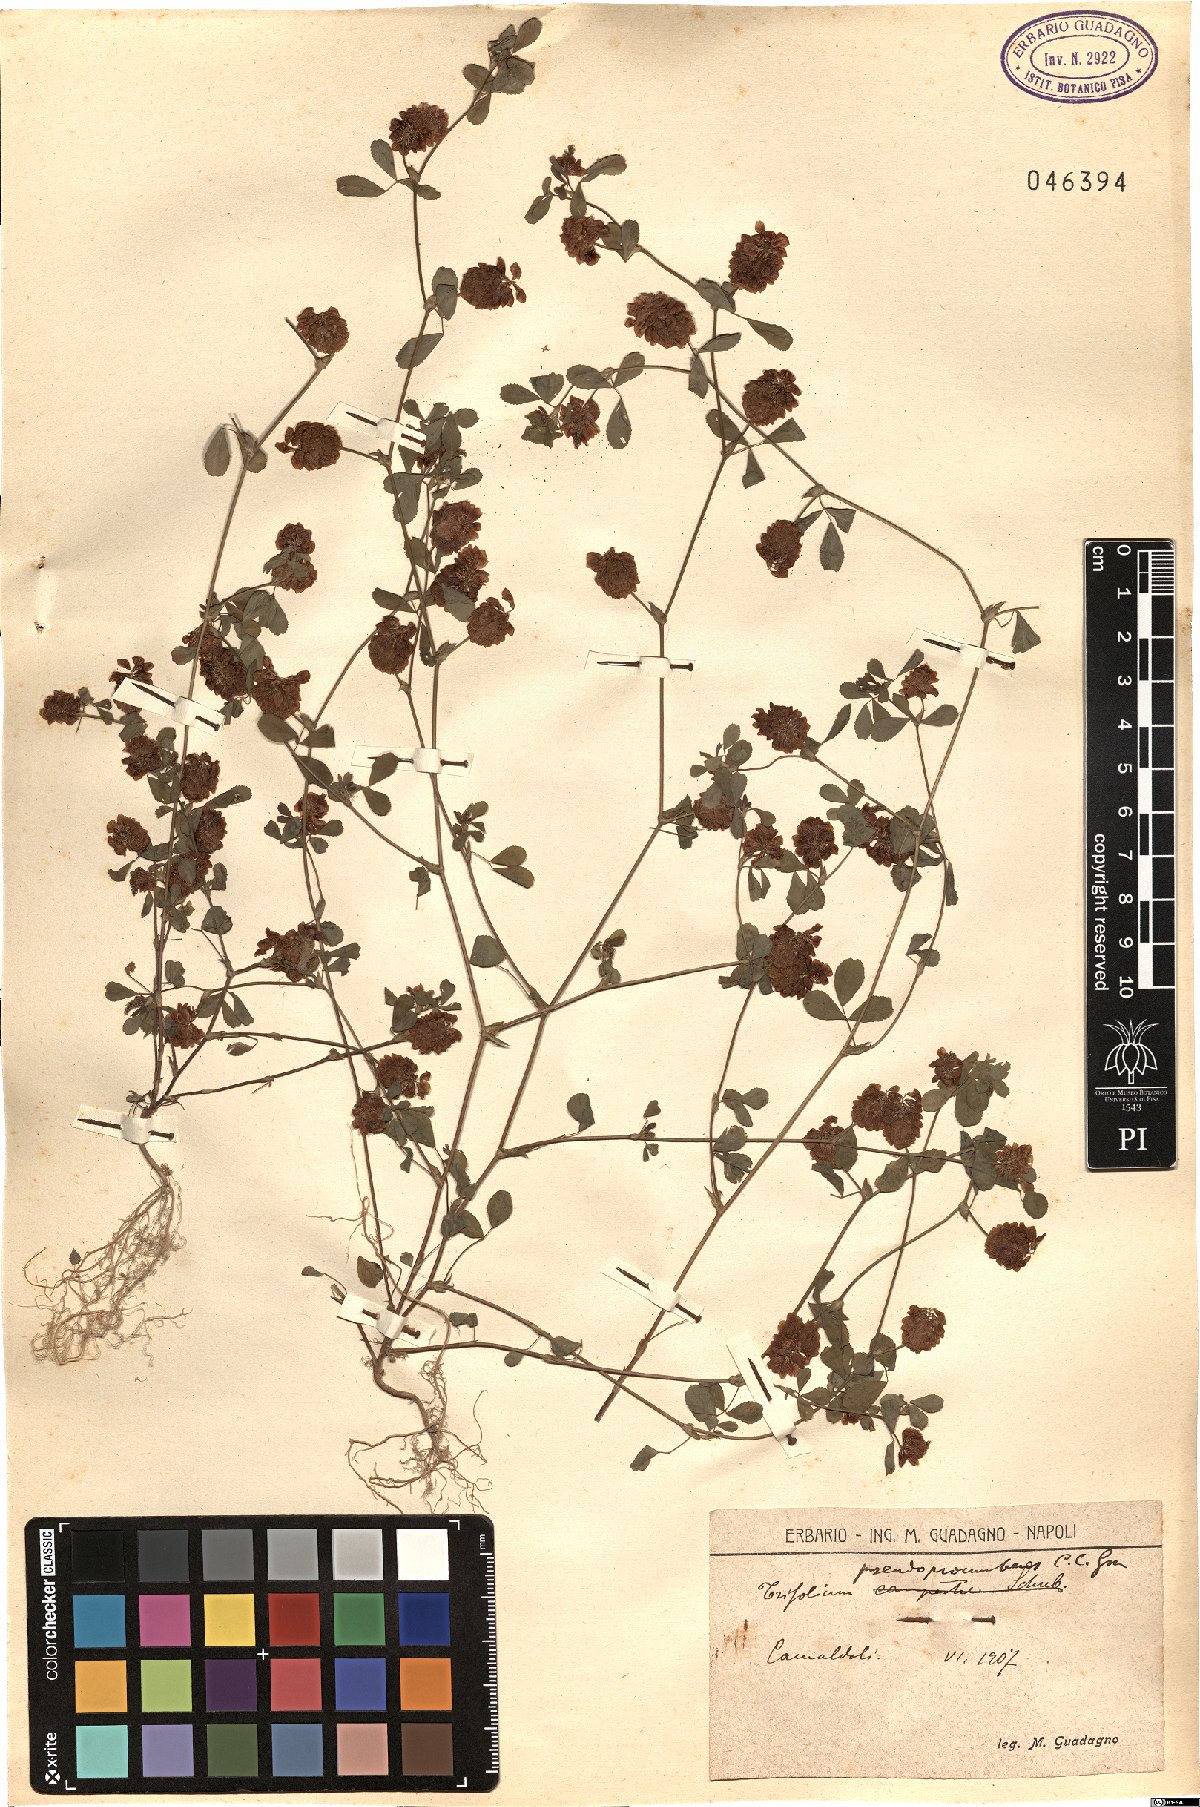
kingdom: Plantae
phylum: Tracheophyta
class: Magnoliopsida
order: Fabales
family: Fabaceae
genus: Trifolium
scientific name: Trifolium campestre
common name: Field clover
